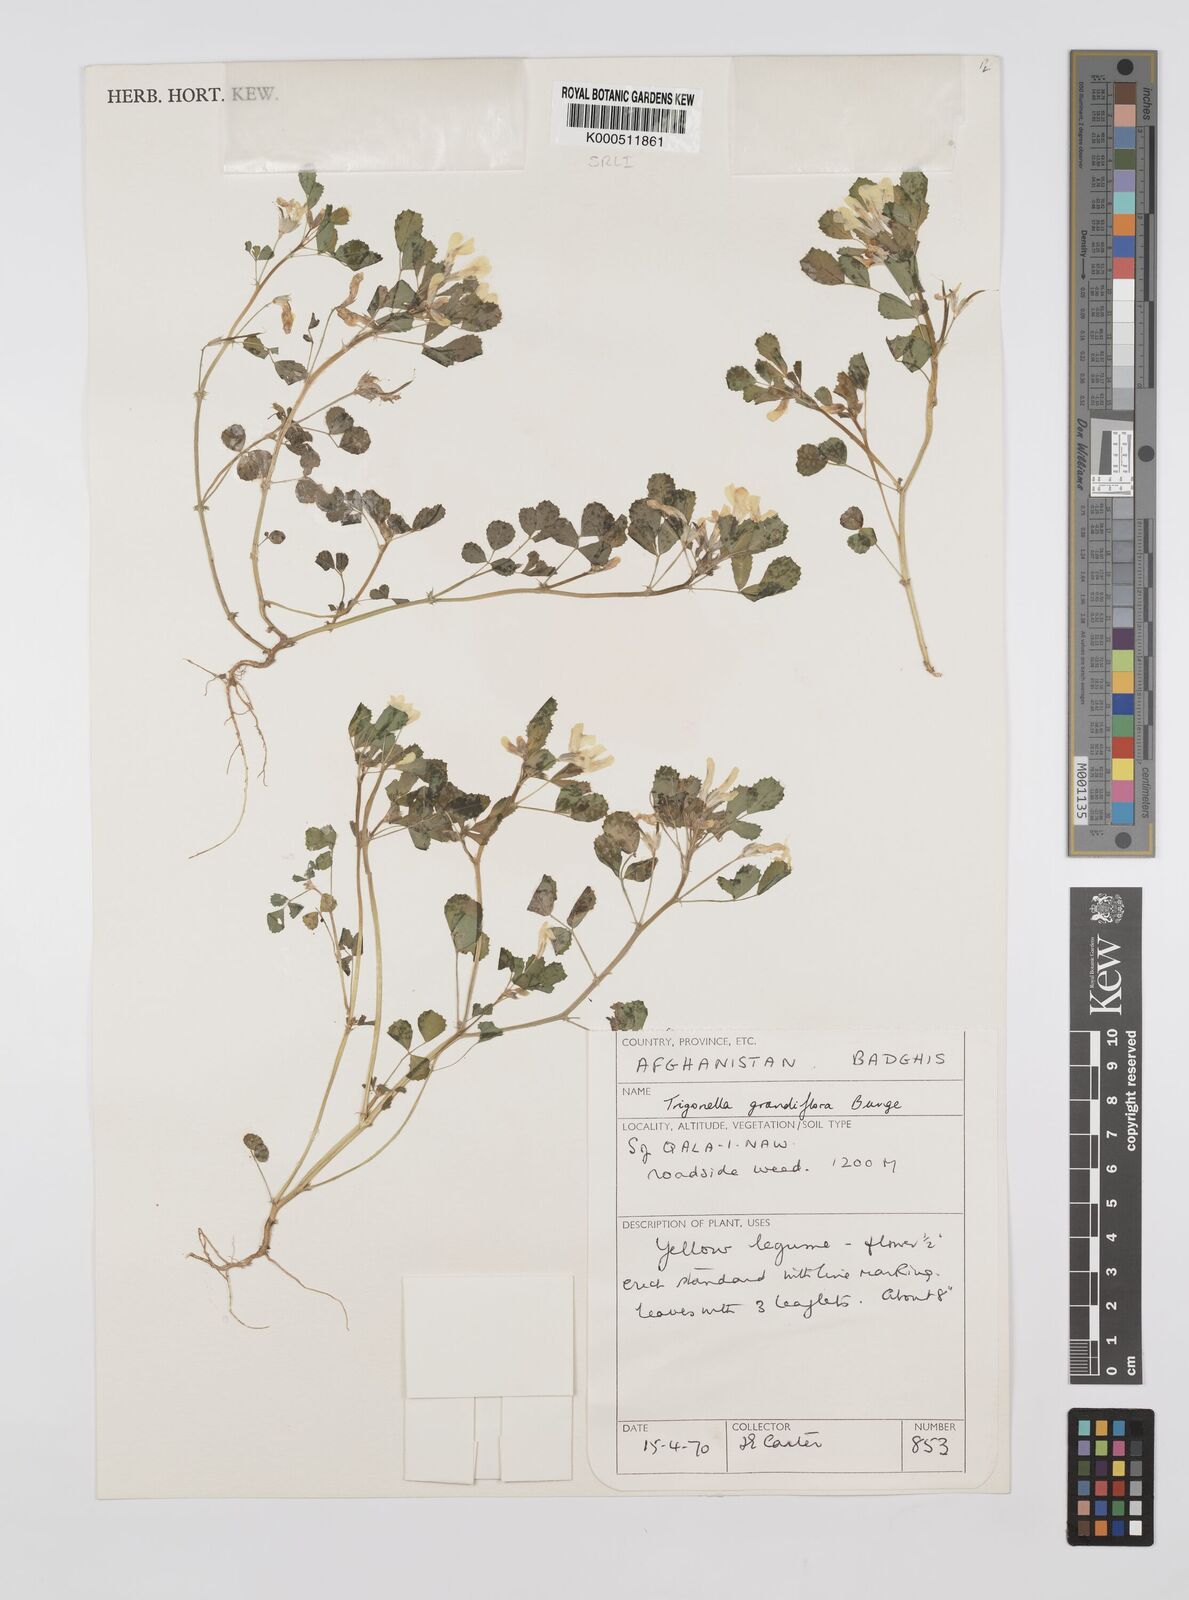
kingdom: Plantae
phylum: Tracheophyta
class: Magnoliopsida
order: Fabales
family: Fabaceae
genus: Trigonella
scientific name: Trigonella grandiflora
